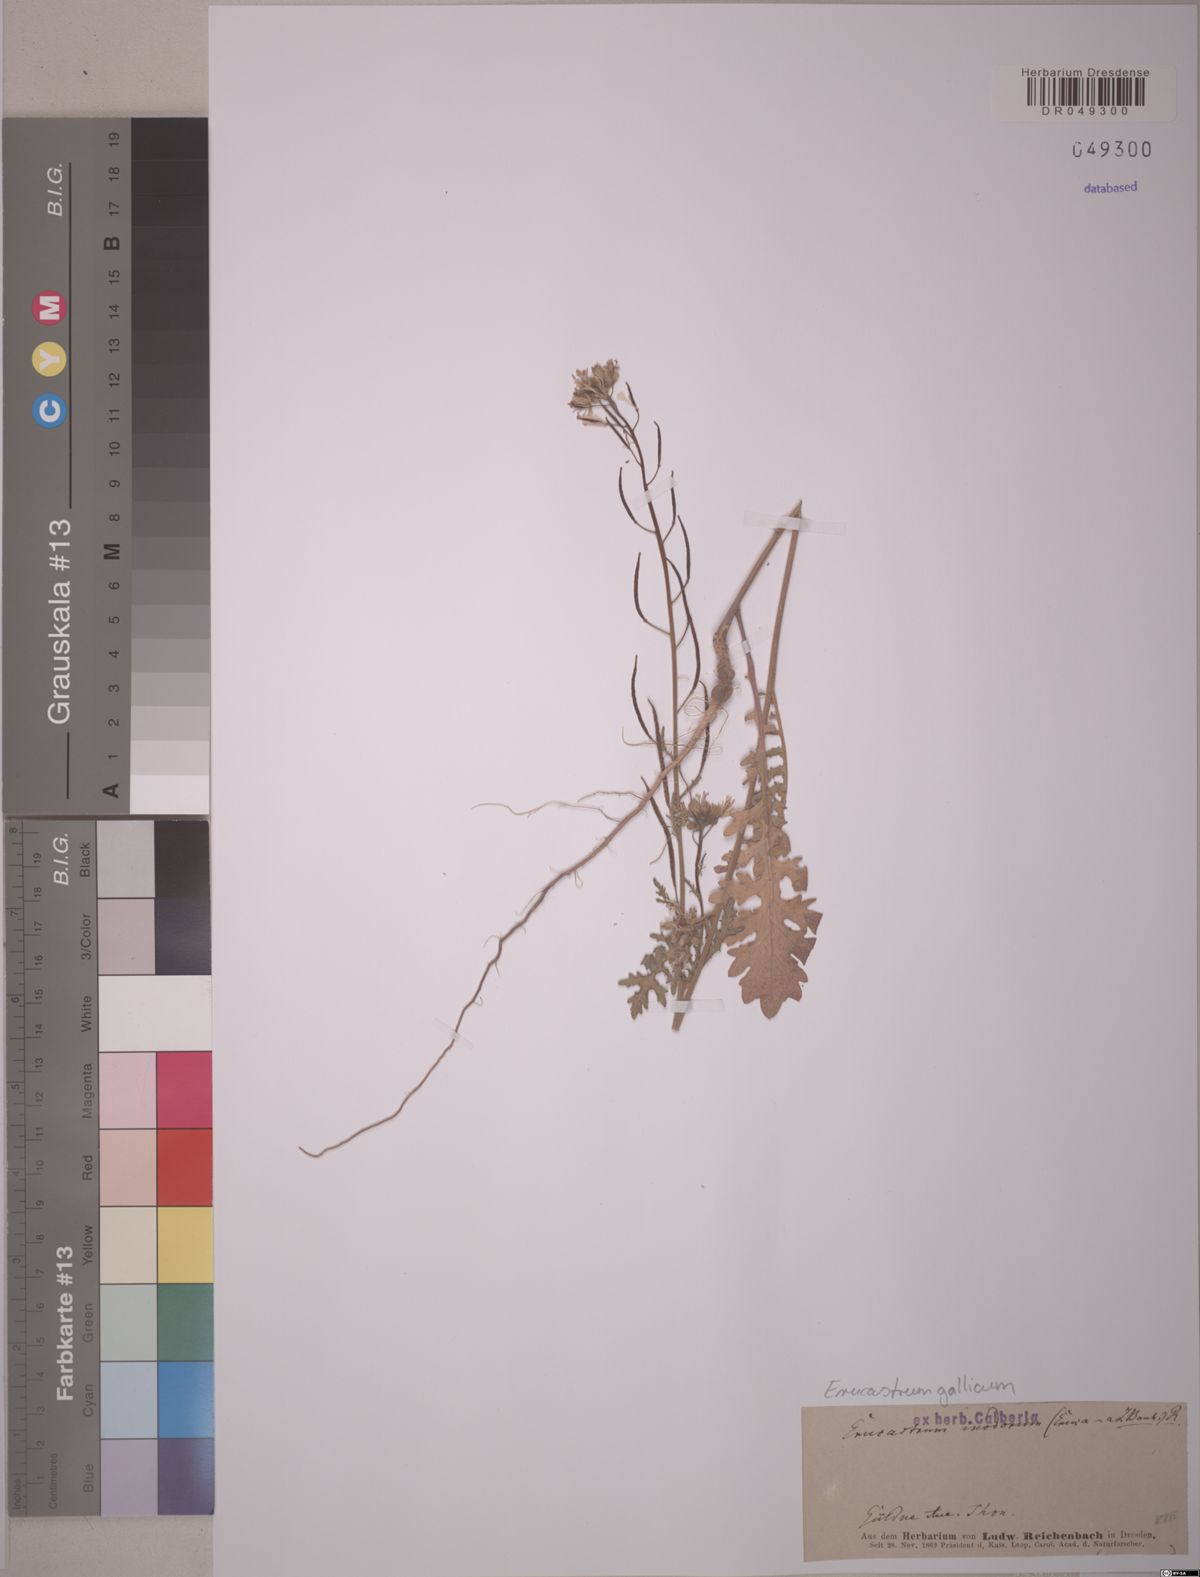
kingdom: Plantae
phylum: Tracheophyta
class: Magnoliopsida
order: Brassicales
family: Brassicaceae
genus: Erucastrum
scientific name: Erucastrum gallicum
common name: Hairy rocket
